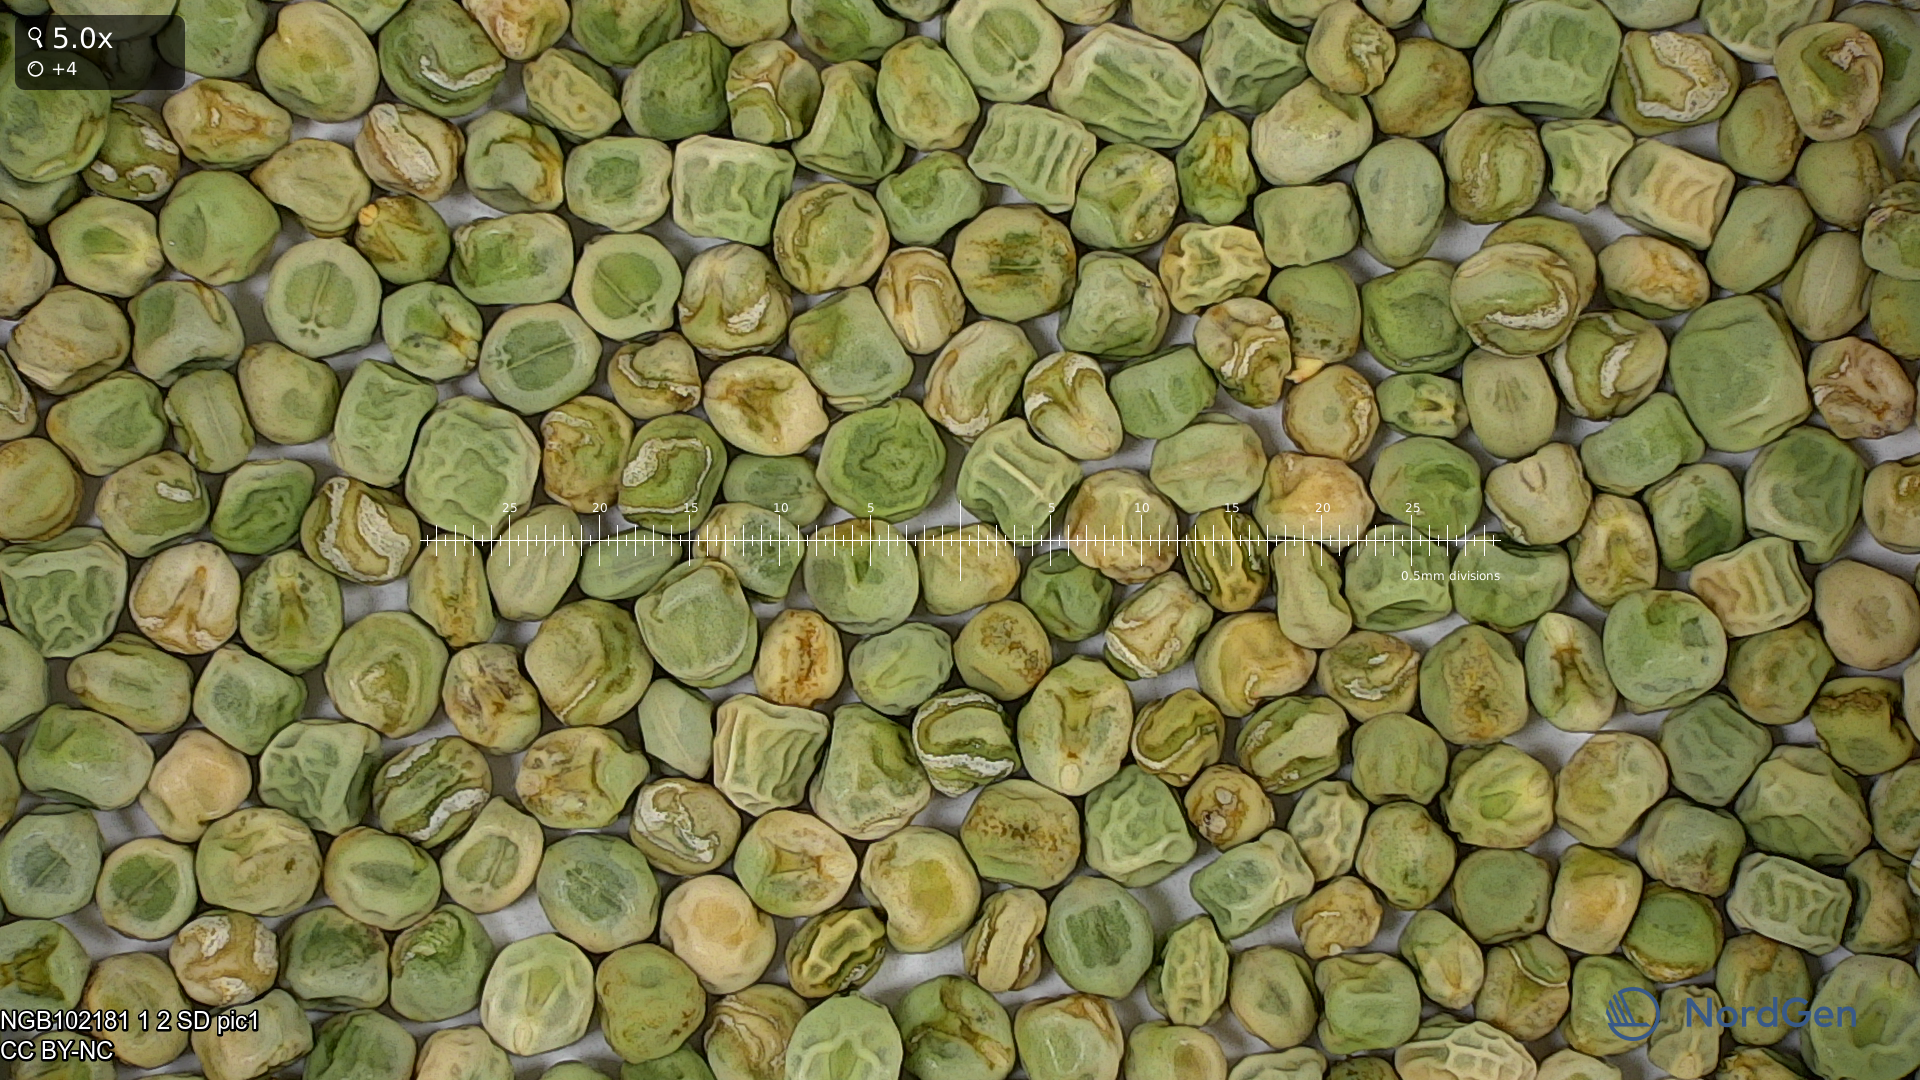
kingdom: Plantae
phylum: Tracheophyta
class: Magnoliopsida
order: Fabales
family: Fabaceae
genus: Lathyrus
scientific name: Lathyrus oleraceus
